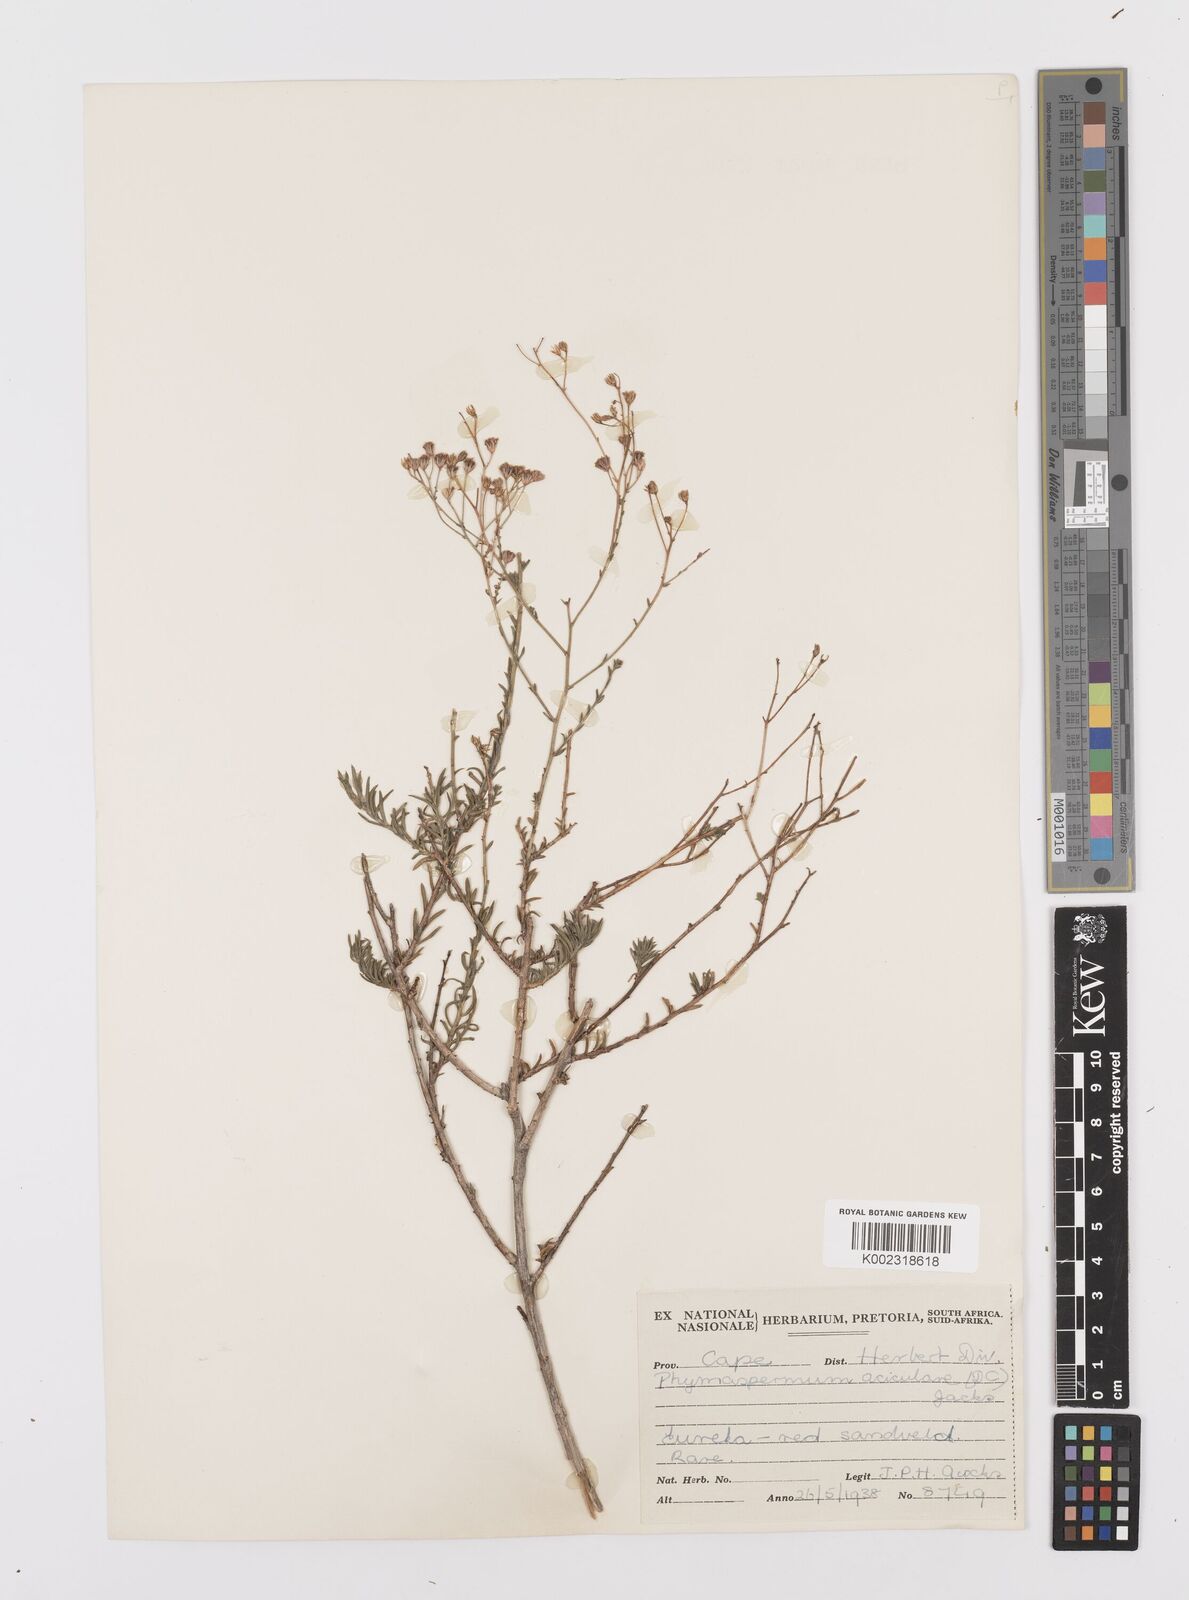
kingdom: Plantae
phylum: Tracheophyta
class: Magnoliopsida
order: Asterales
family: Asteraceae
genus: Phymaspermum
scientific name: Phymaspermum aciculare
